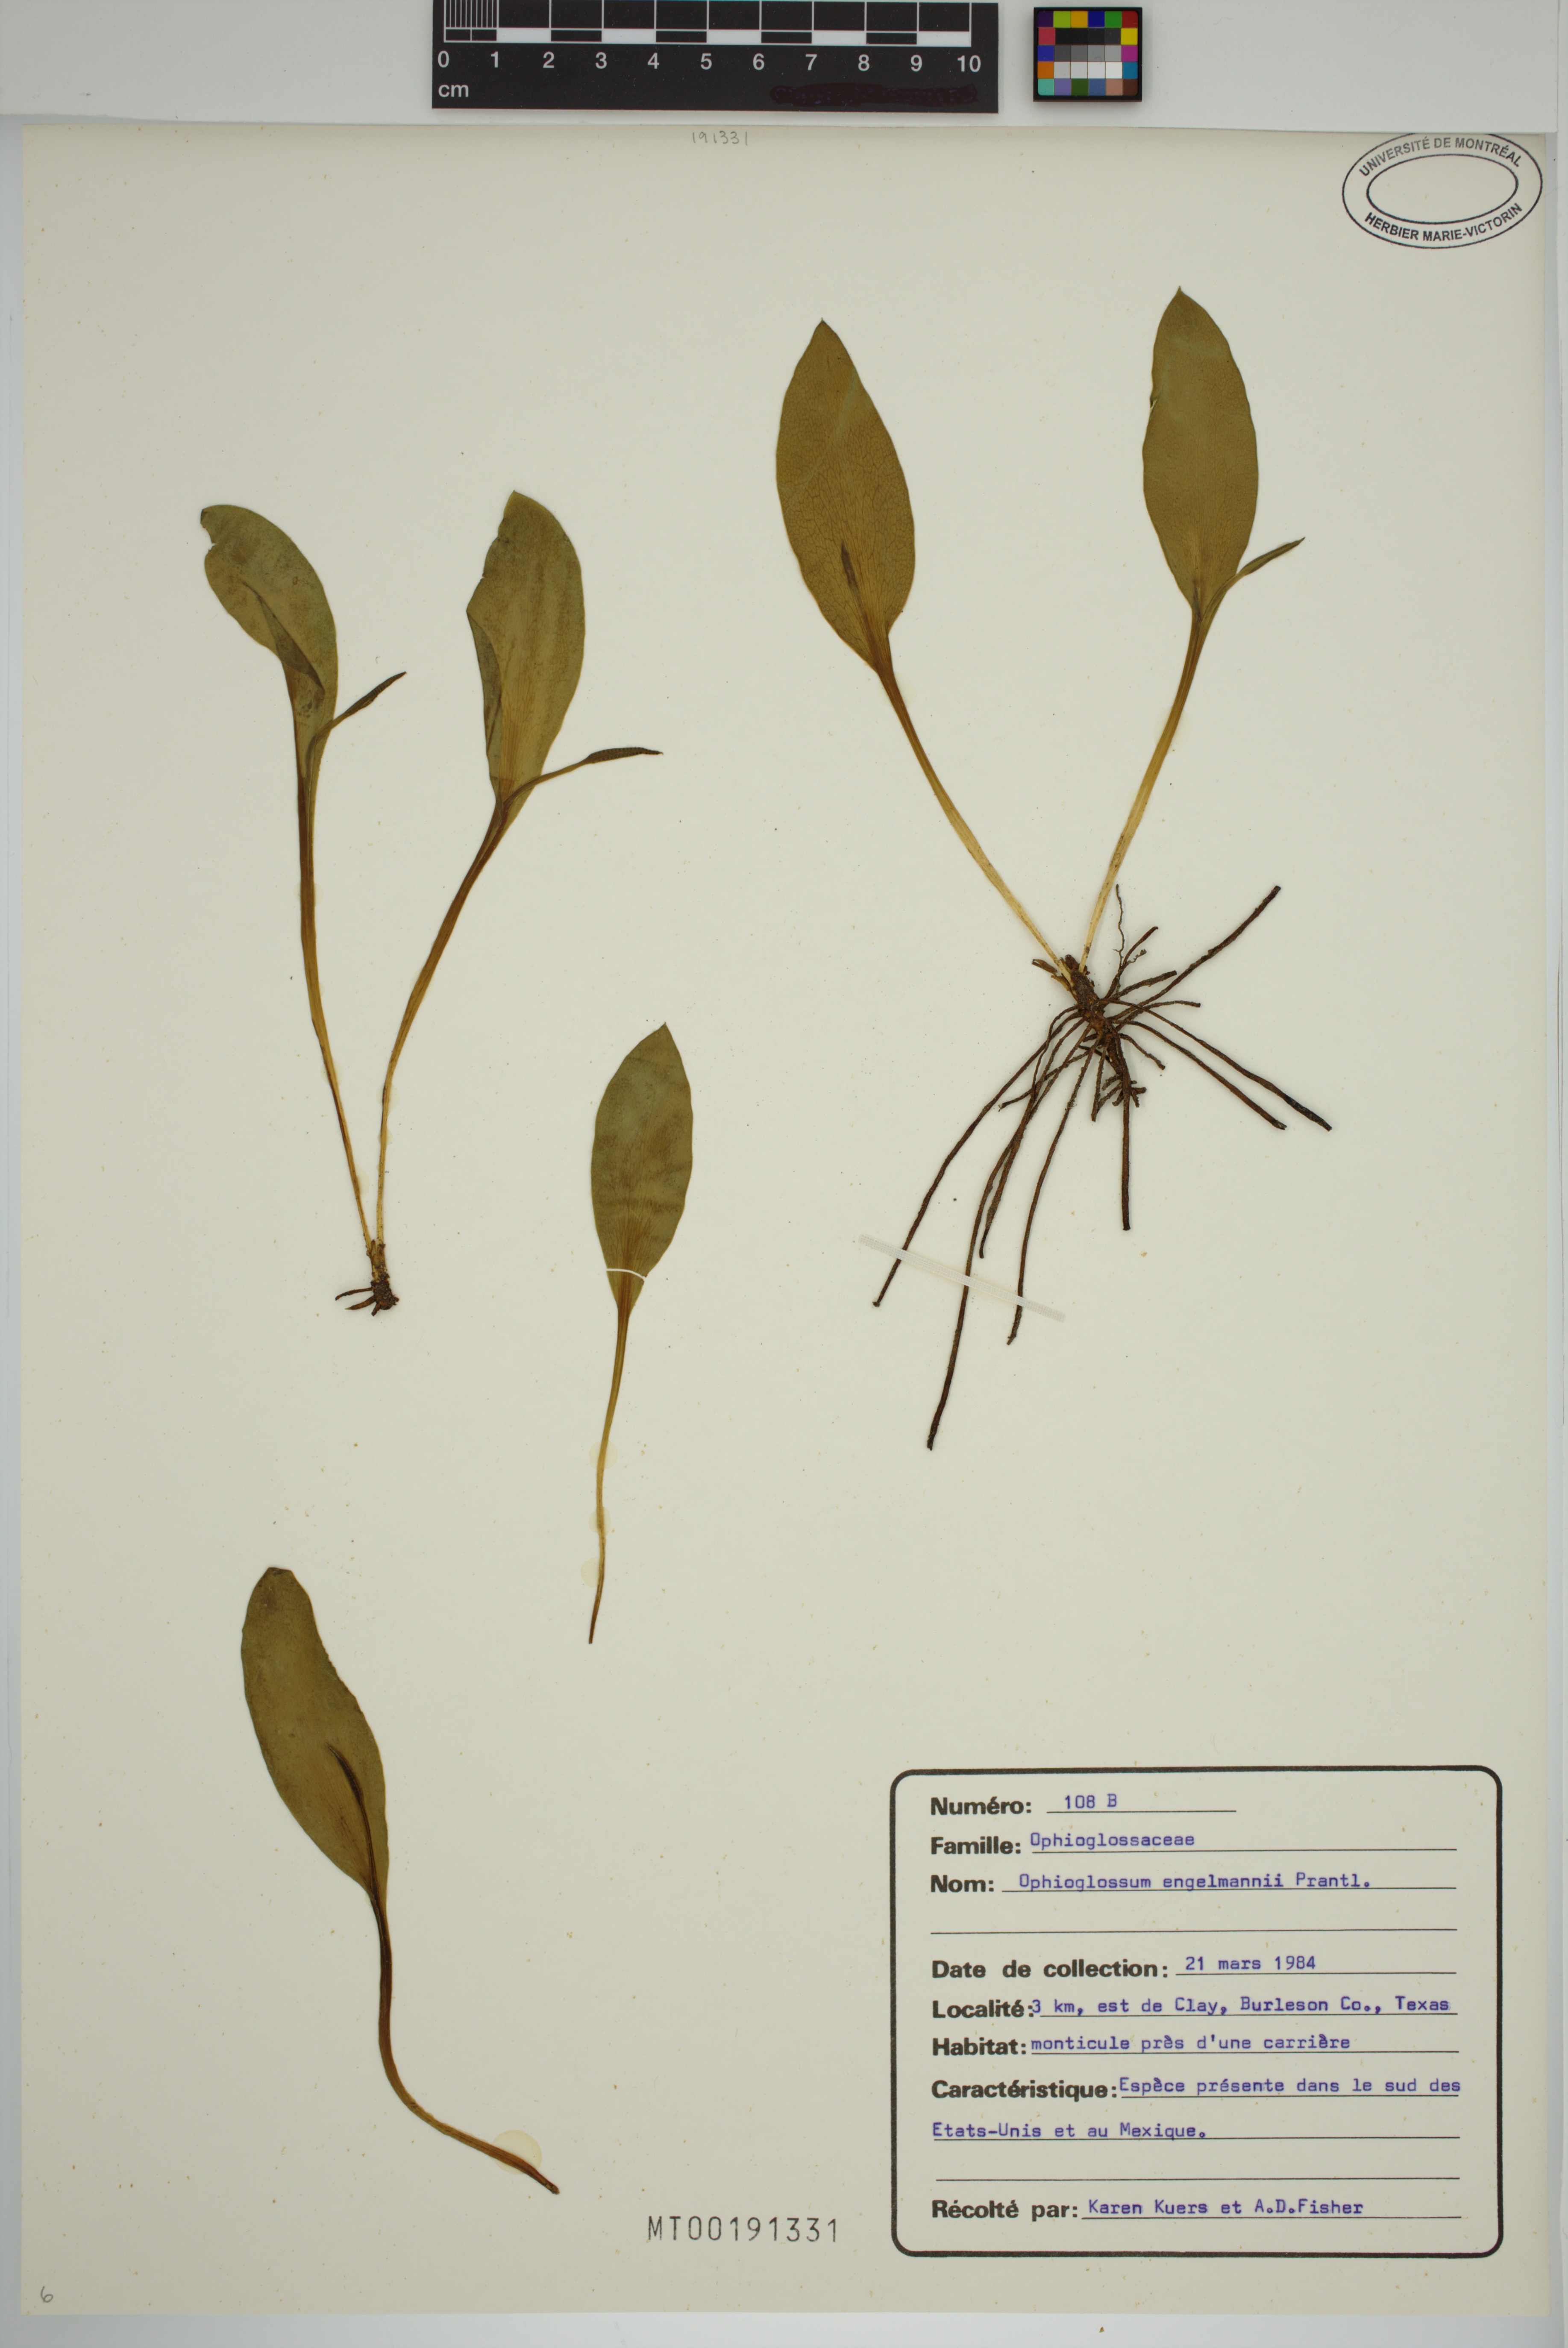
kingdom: Plantae
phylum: Tracheophyta
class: Polypodiopsida
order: Ophioglossales
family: Ophioglossaceae
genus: Ophioglossum
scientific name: Ophioglossum engelmannii
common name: Limestone adder's-tongue
